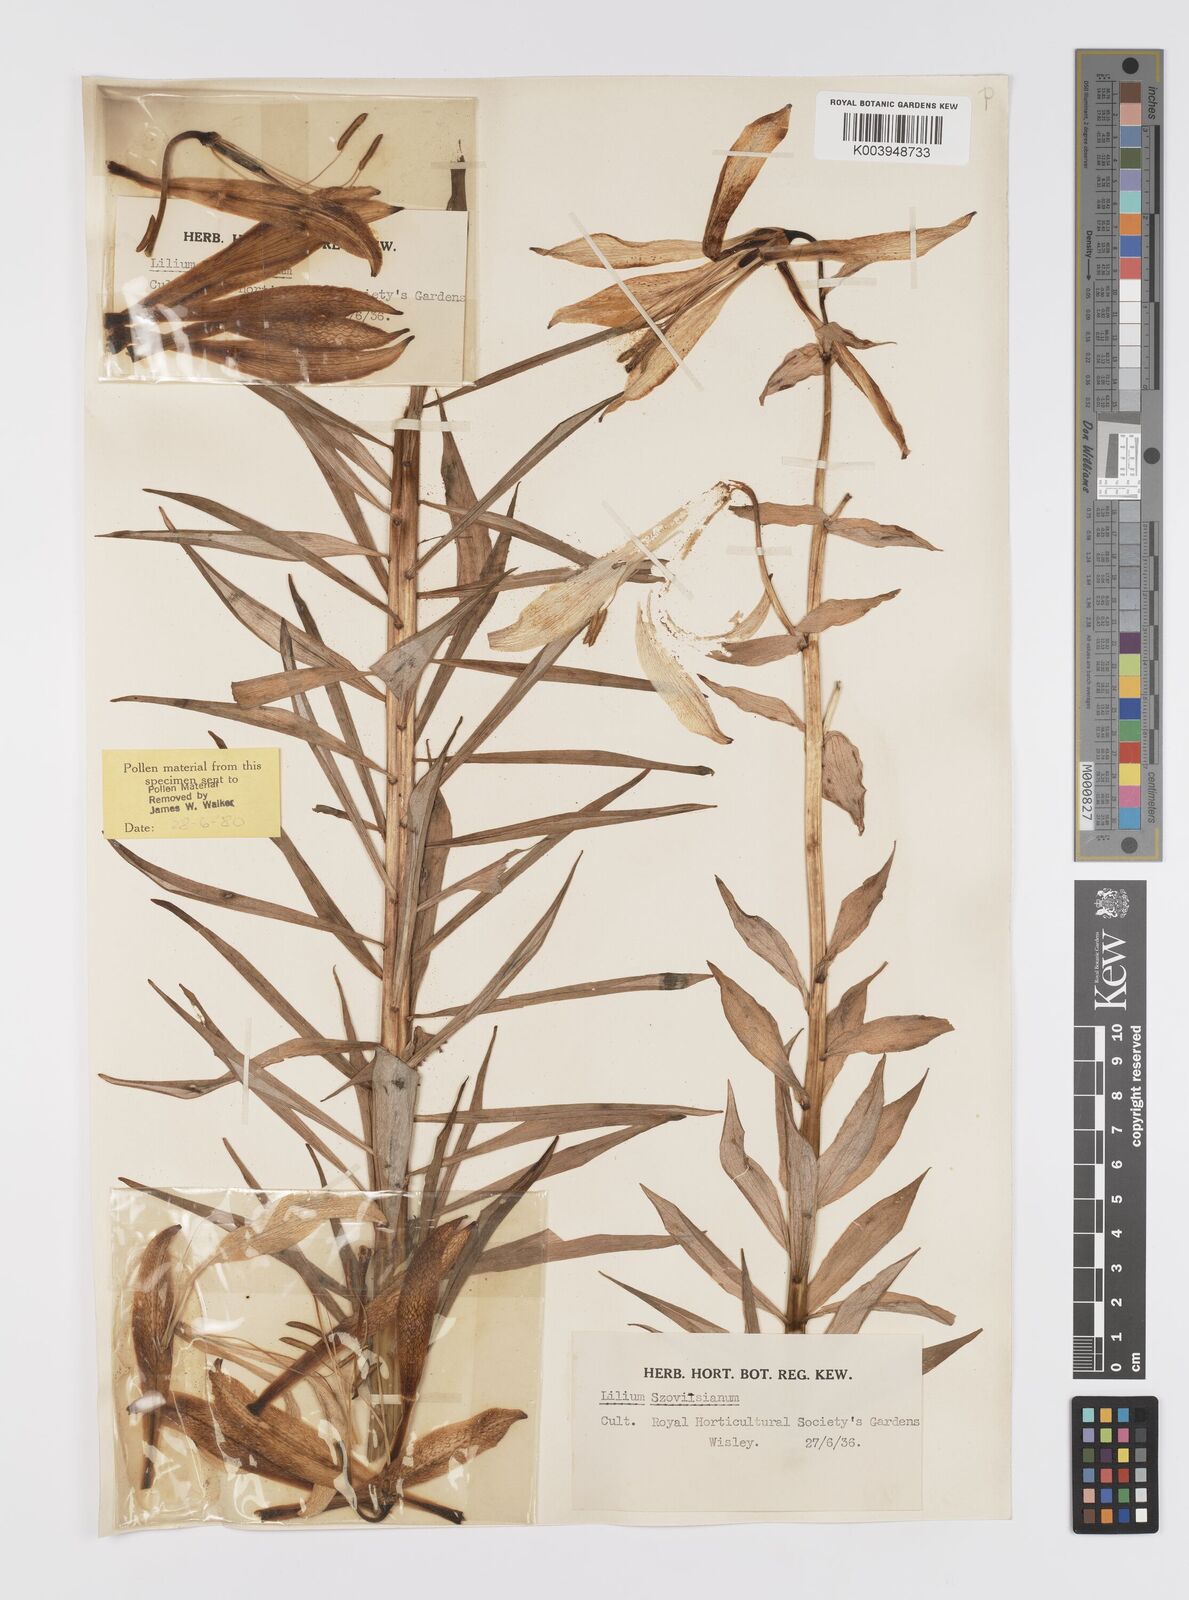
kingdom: Plantae
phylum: Tracheophyta
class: Liliopsida
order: Liliales
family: Liliaceae
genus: Lilium
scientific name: Lilium szovitsianum
